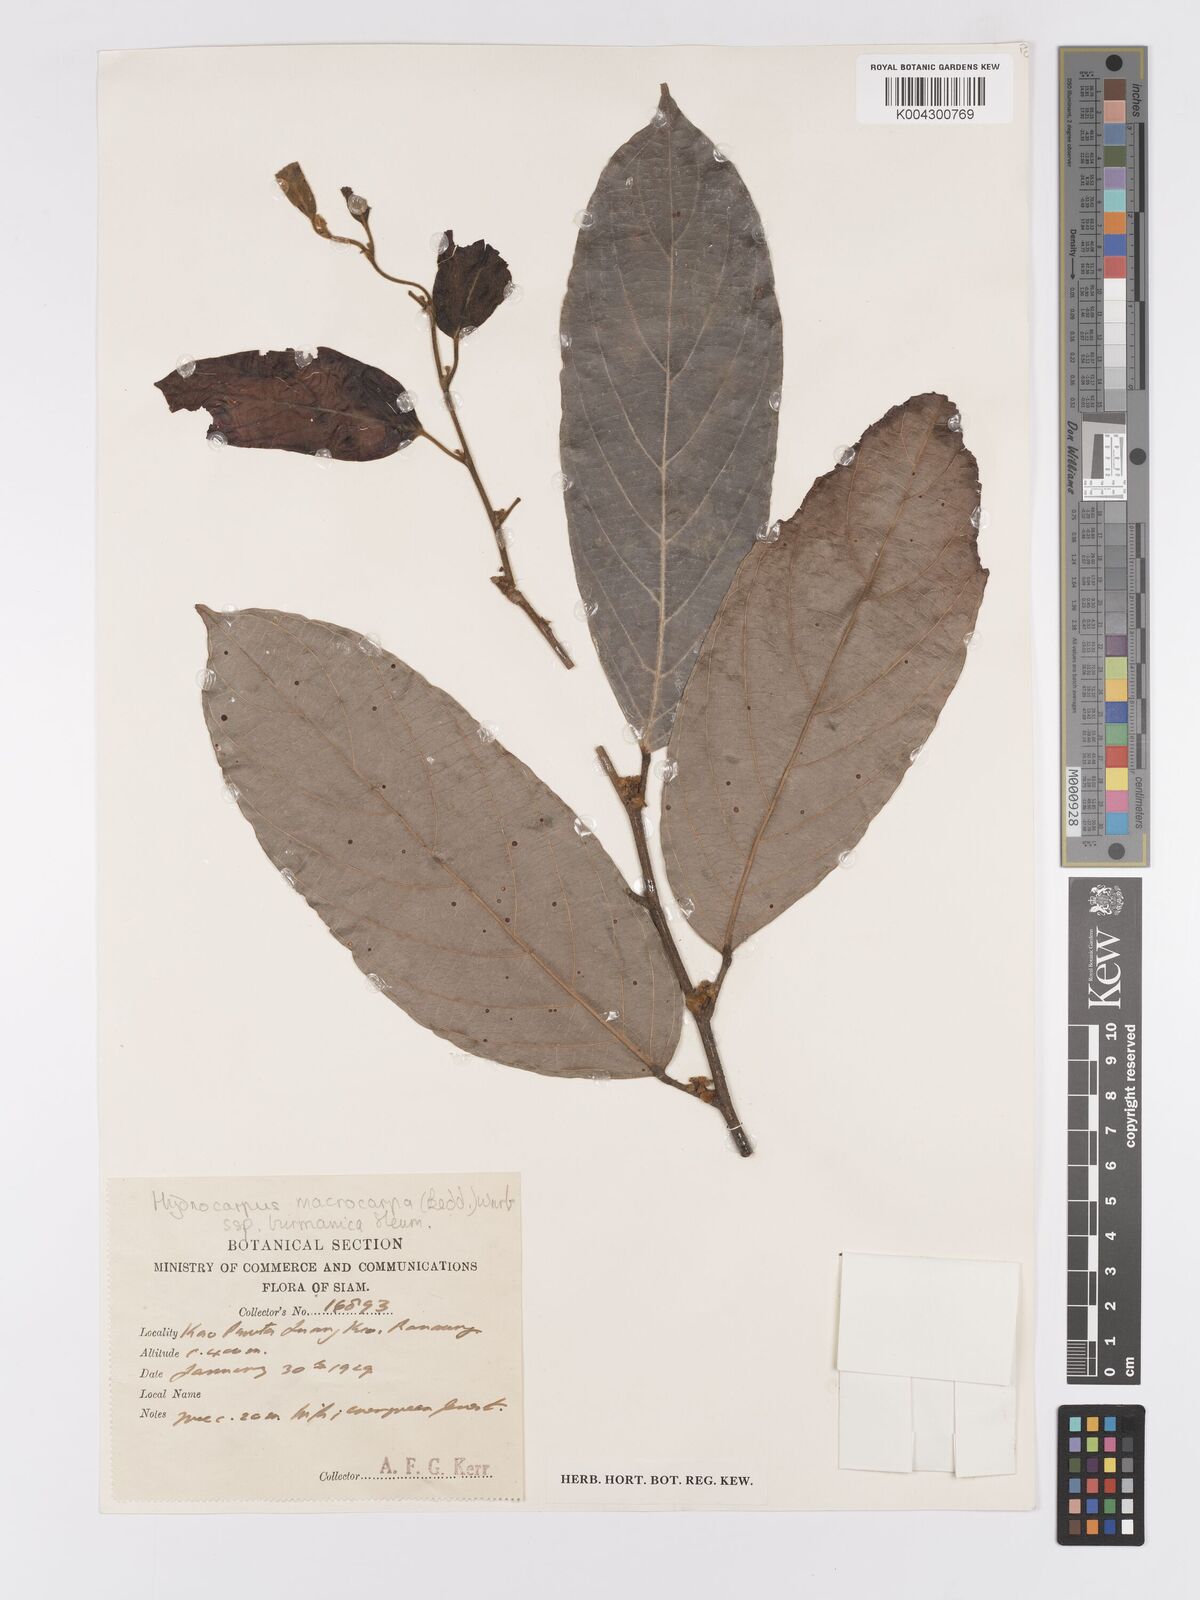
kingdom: Plantae
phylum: Tracheophyta
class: Magnoliopsida
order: Malpighiales
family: Achariaceae
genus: Hydnocarpus
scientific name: Hydnocarpus macrocarpus
